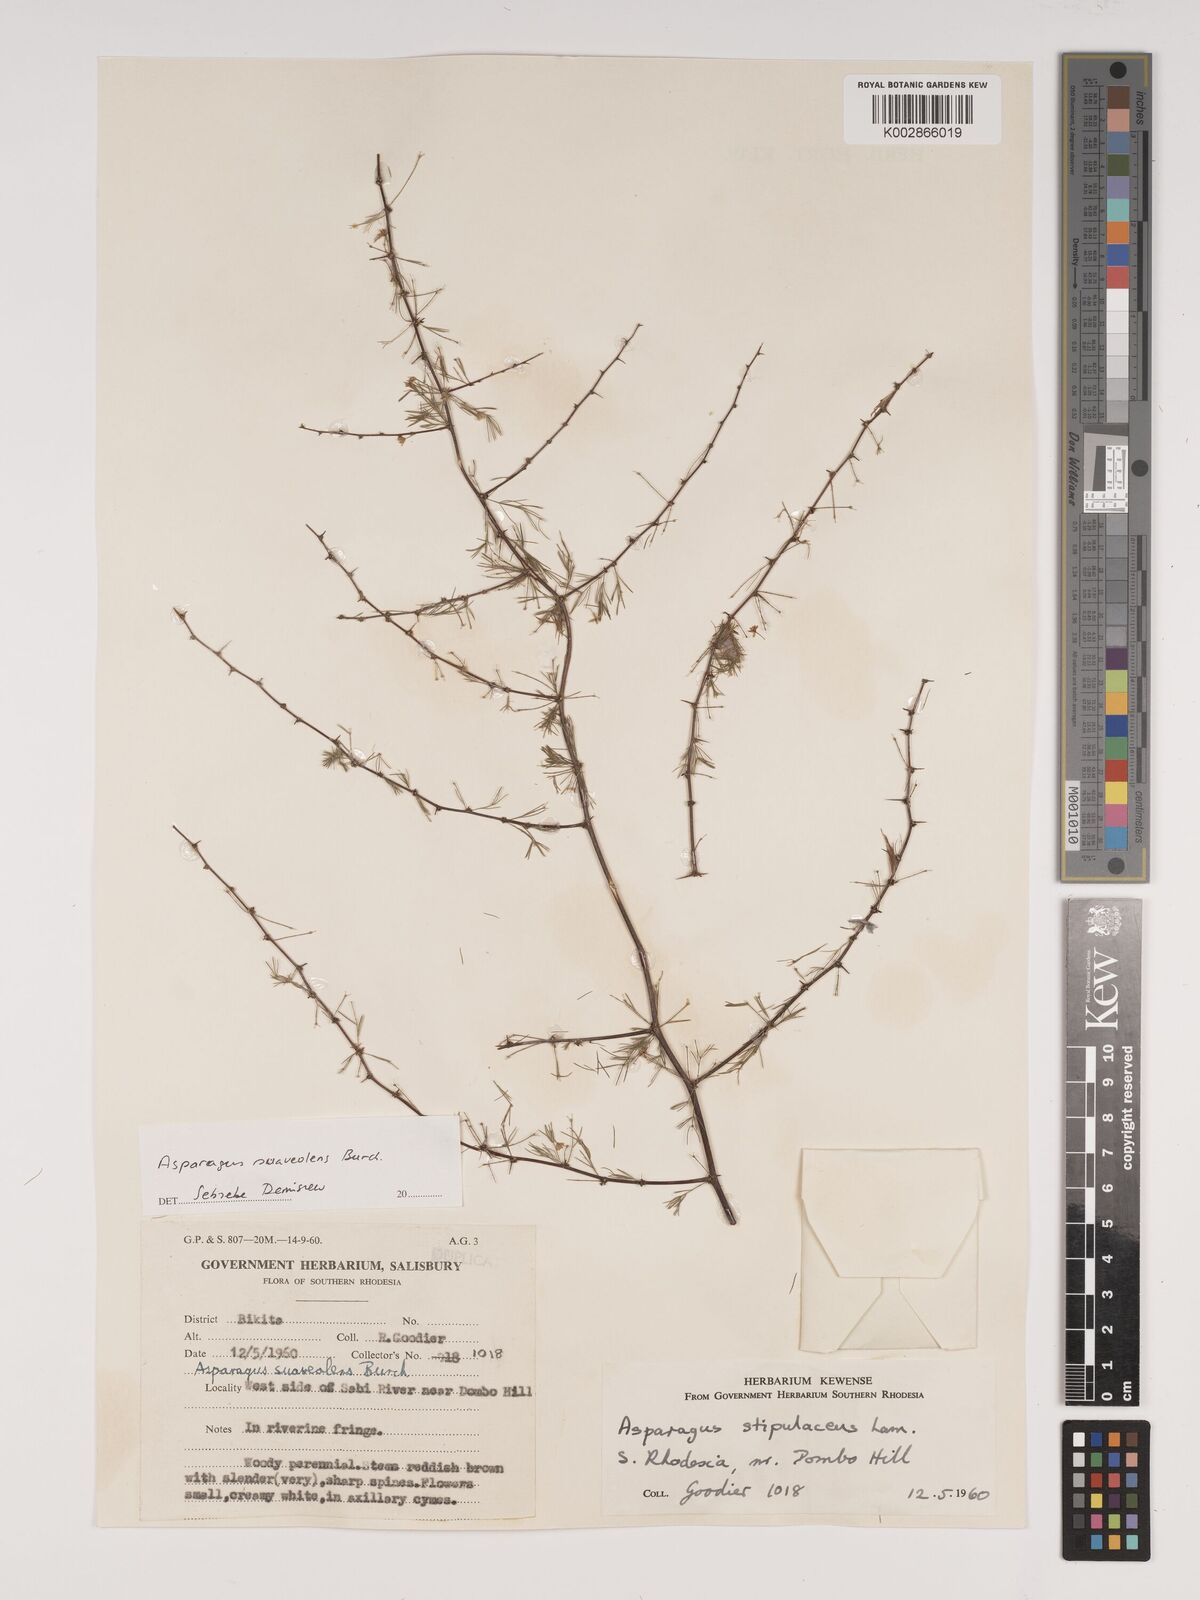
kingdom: Plantae
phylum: Tracheophyta
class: Liliopsida
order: Asparagales
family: Asparagaceae
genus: Asparagus
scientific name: Asparagus suaveolens
